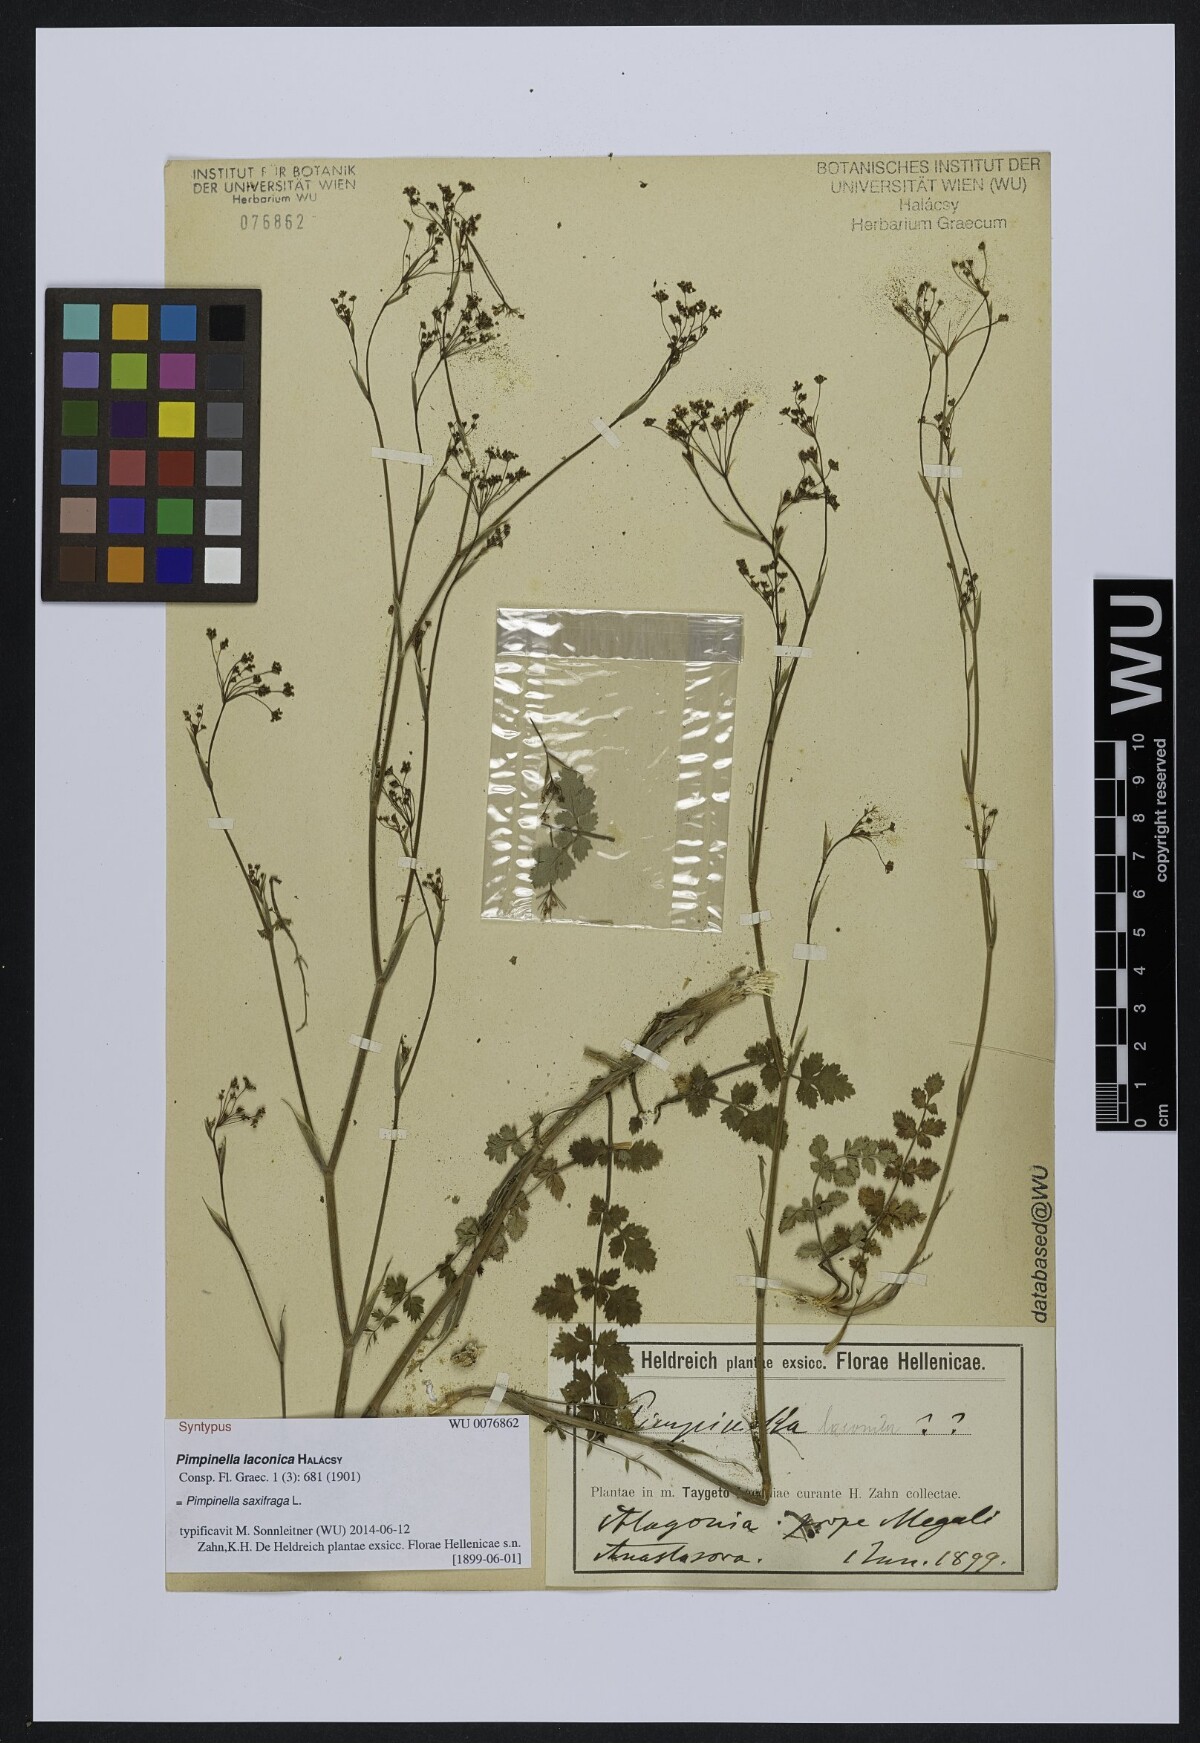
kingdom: Plantae
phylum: Tracheophyta
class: Magnoliopsida
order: Apiales
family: Apiaceae
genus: Pimpinella
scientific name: Pimpinella saxifraga
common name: Burnet-saxifrage
